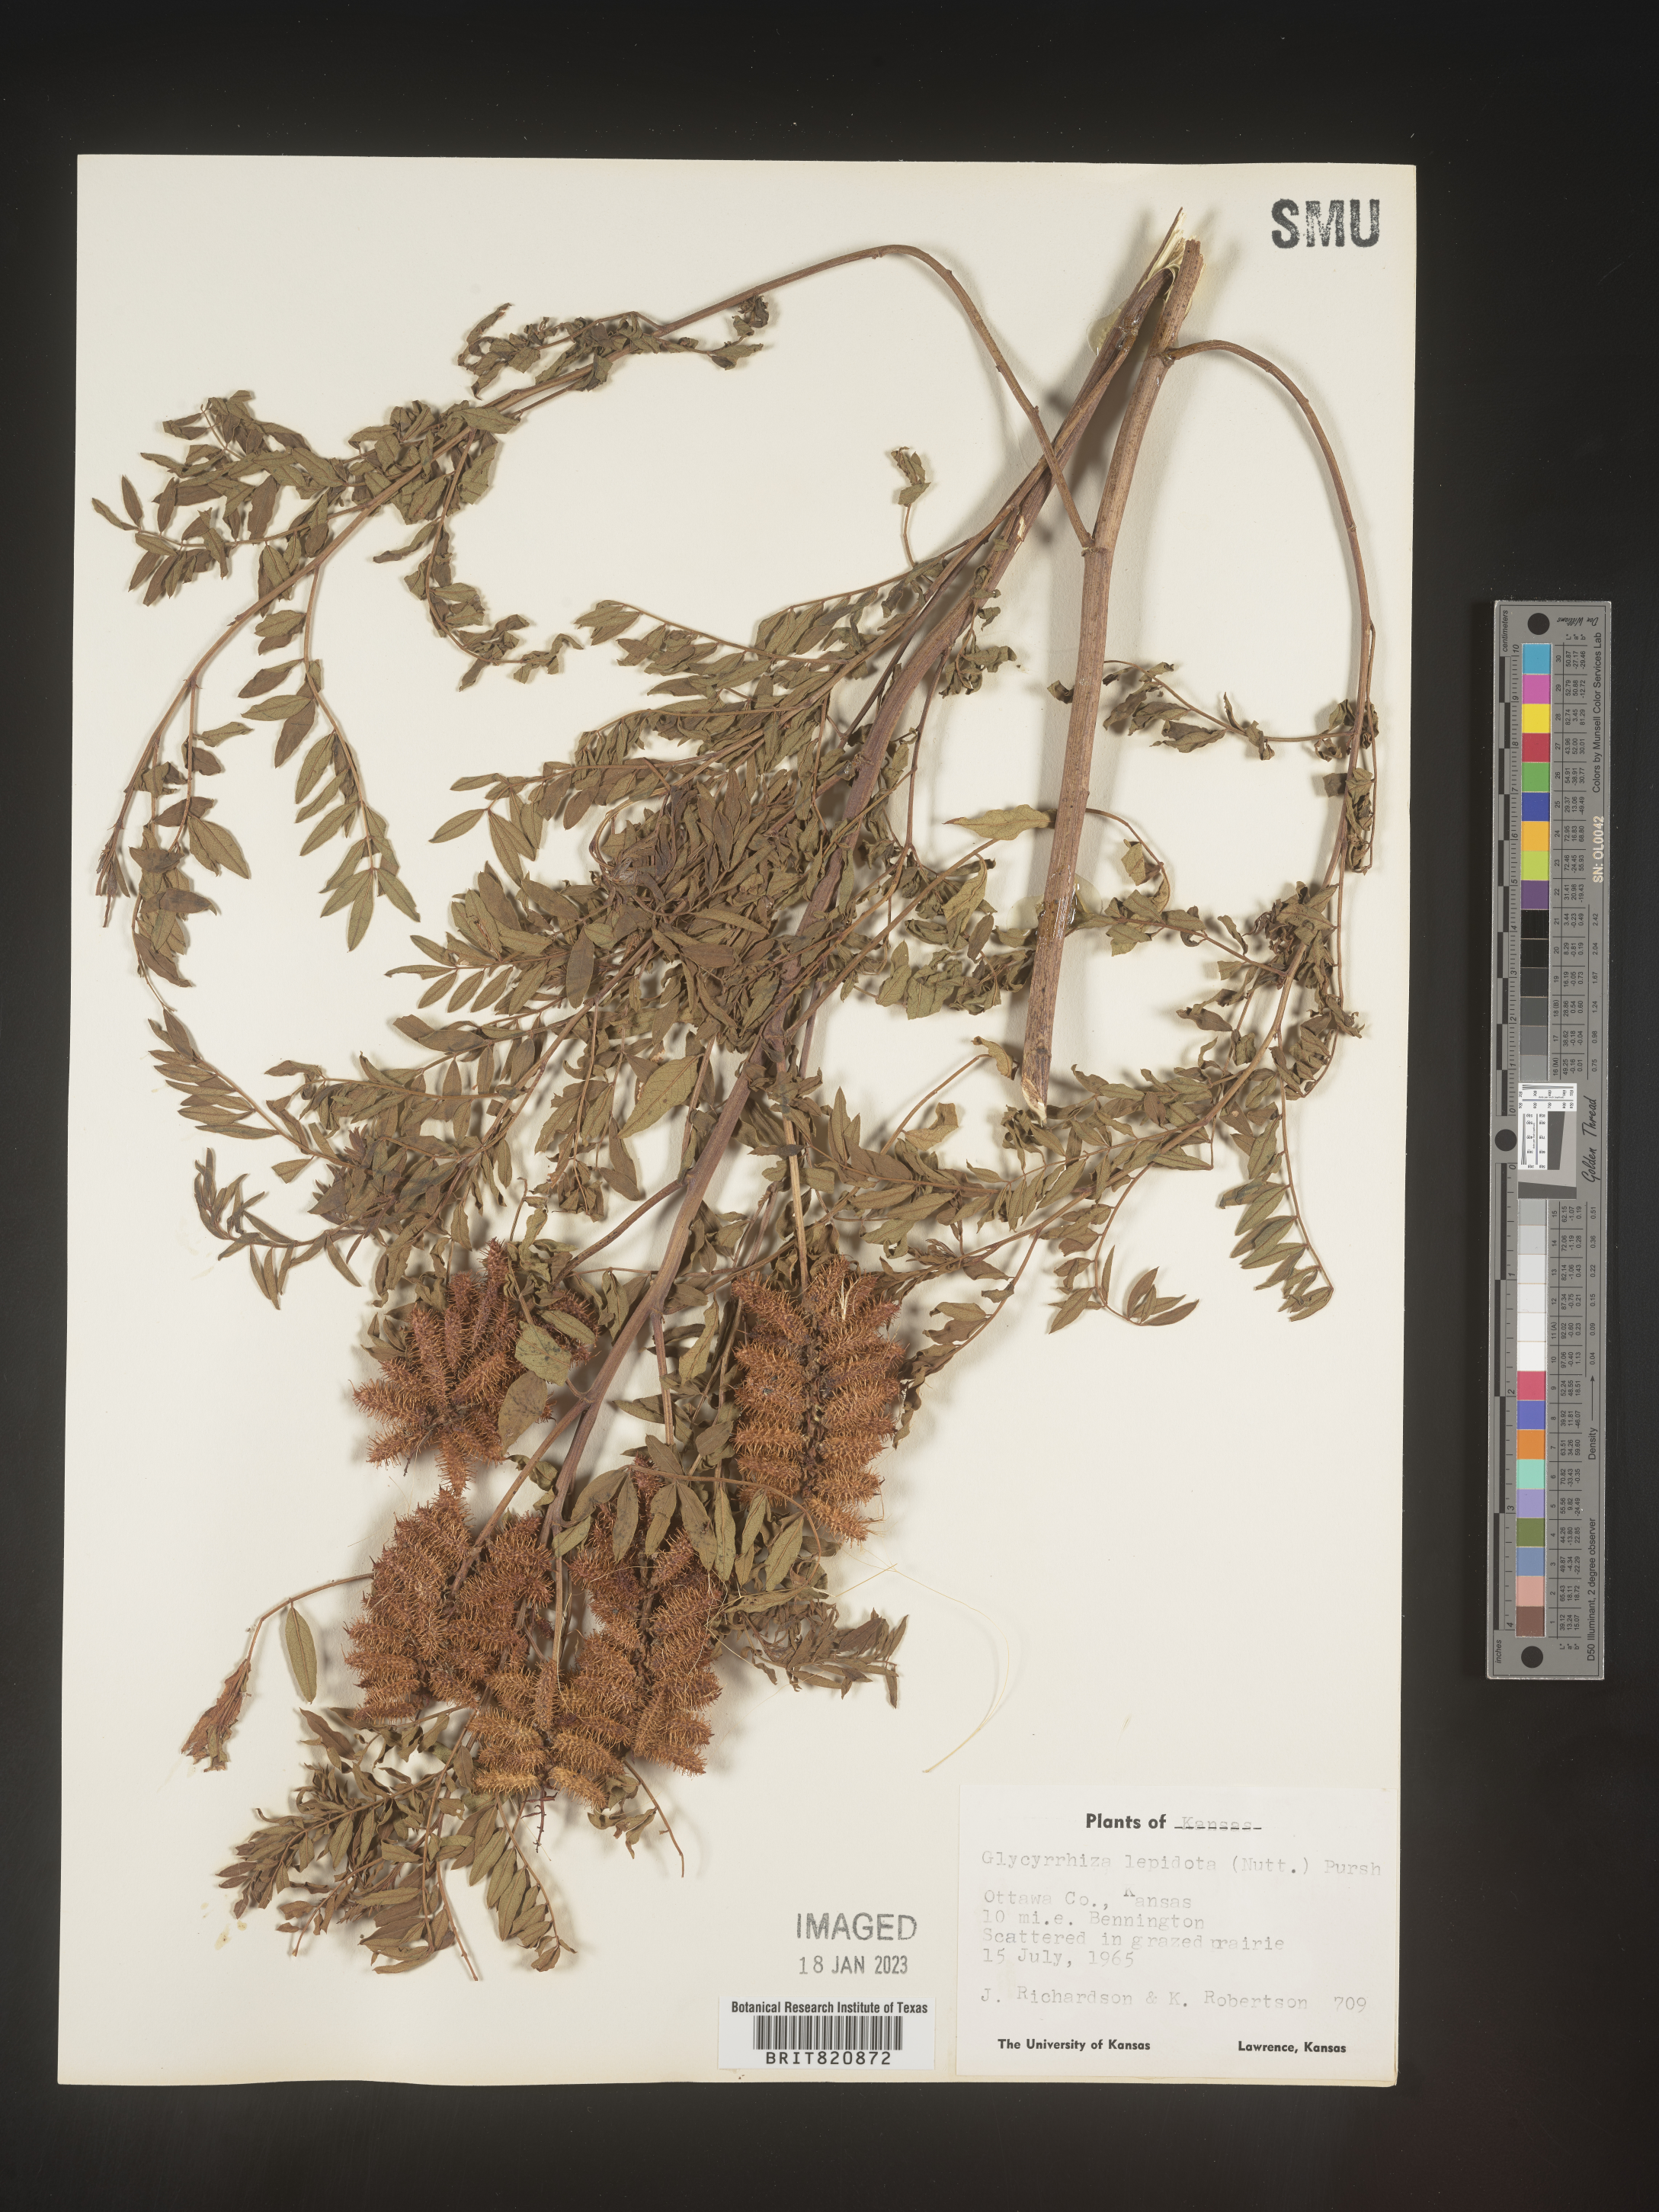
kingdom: Plantae
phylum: Tracheophyta
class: Magnoliopsida
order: Fabales
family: Fabaceae
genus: Glycyrrhiza
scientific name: Glycyrrhiza lepidota
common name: American liquorice
